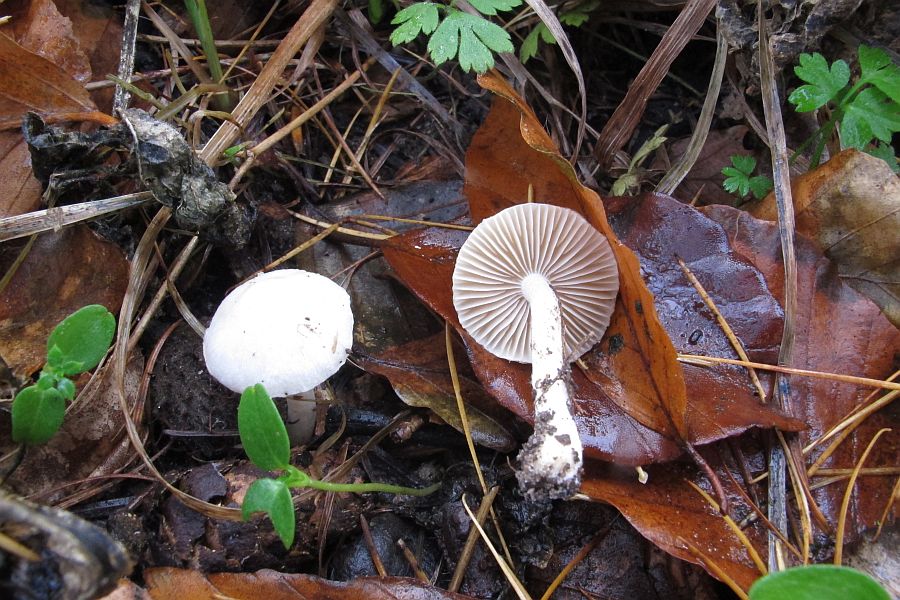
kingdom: Fungi
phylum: Basidiomycota
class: Agaricomycetes
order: Agaricales
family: Inocybaceae
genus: Inocybe
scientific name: Inocybe
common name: almindelig trævlhat
